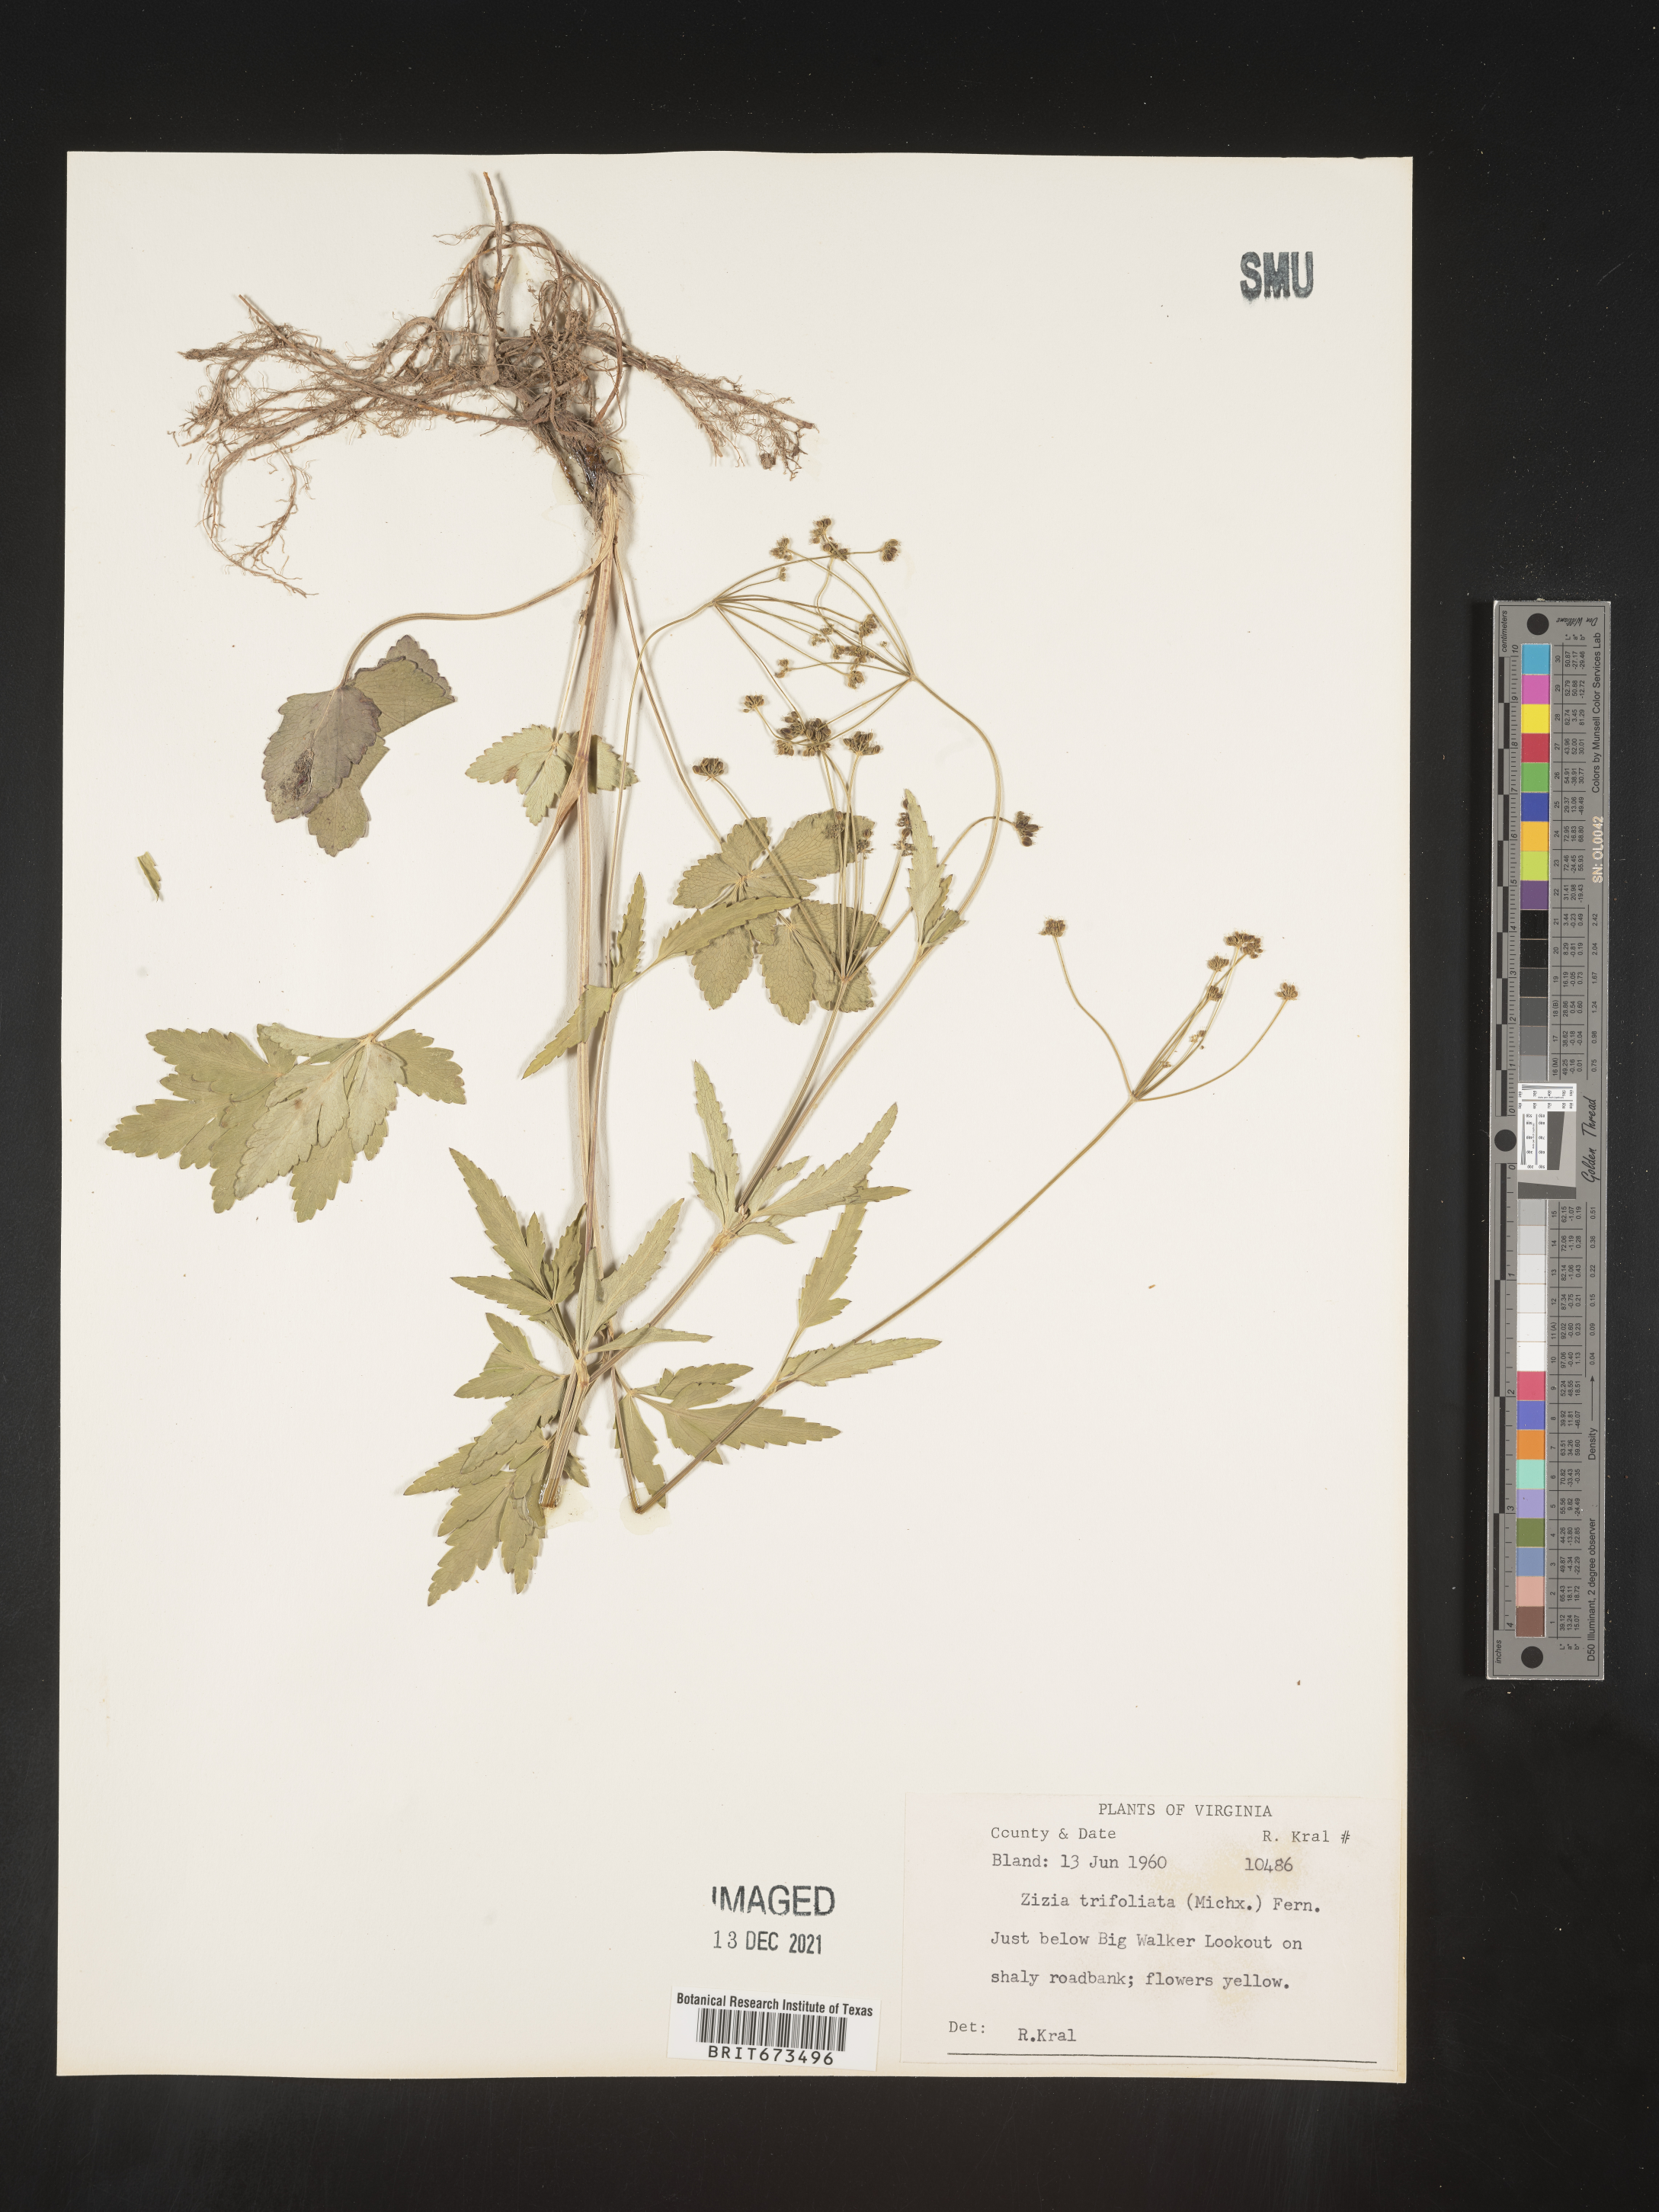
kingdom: Plantae
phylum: Tracheophyta
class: Magnoliopsida
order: Apiales
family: Apiaceae
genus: Zizia
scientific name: Zizia trifoliata
